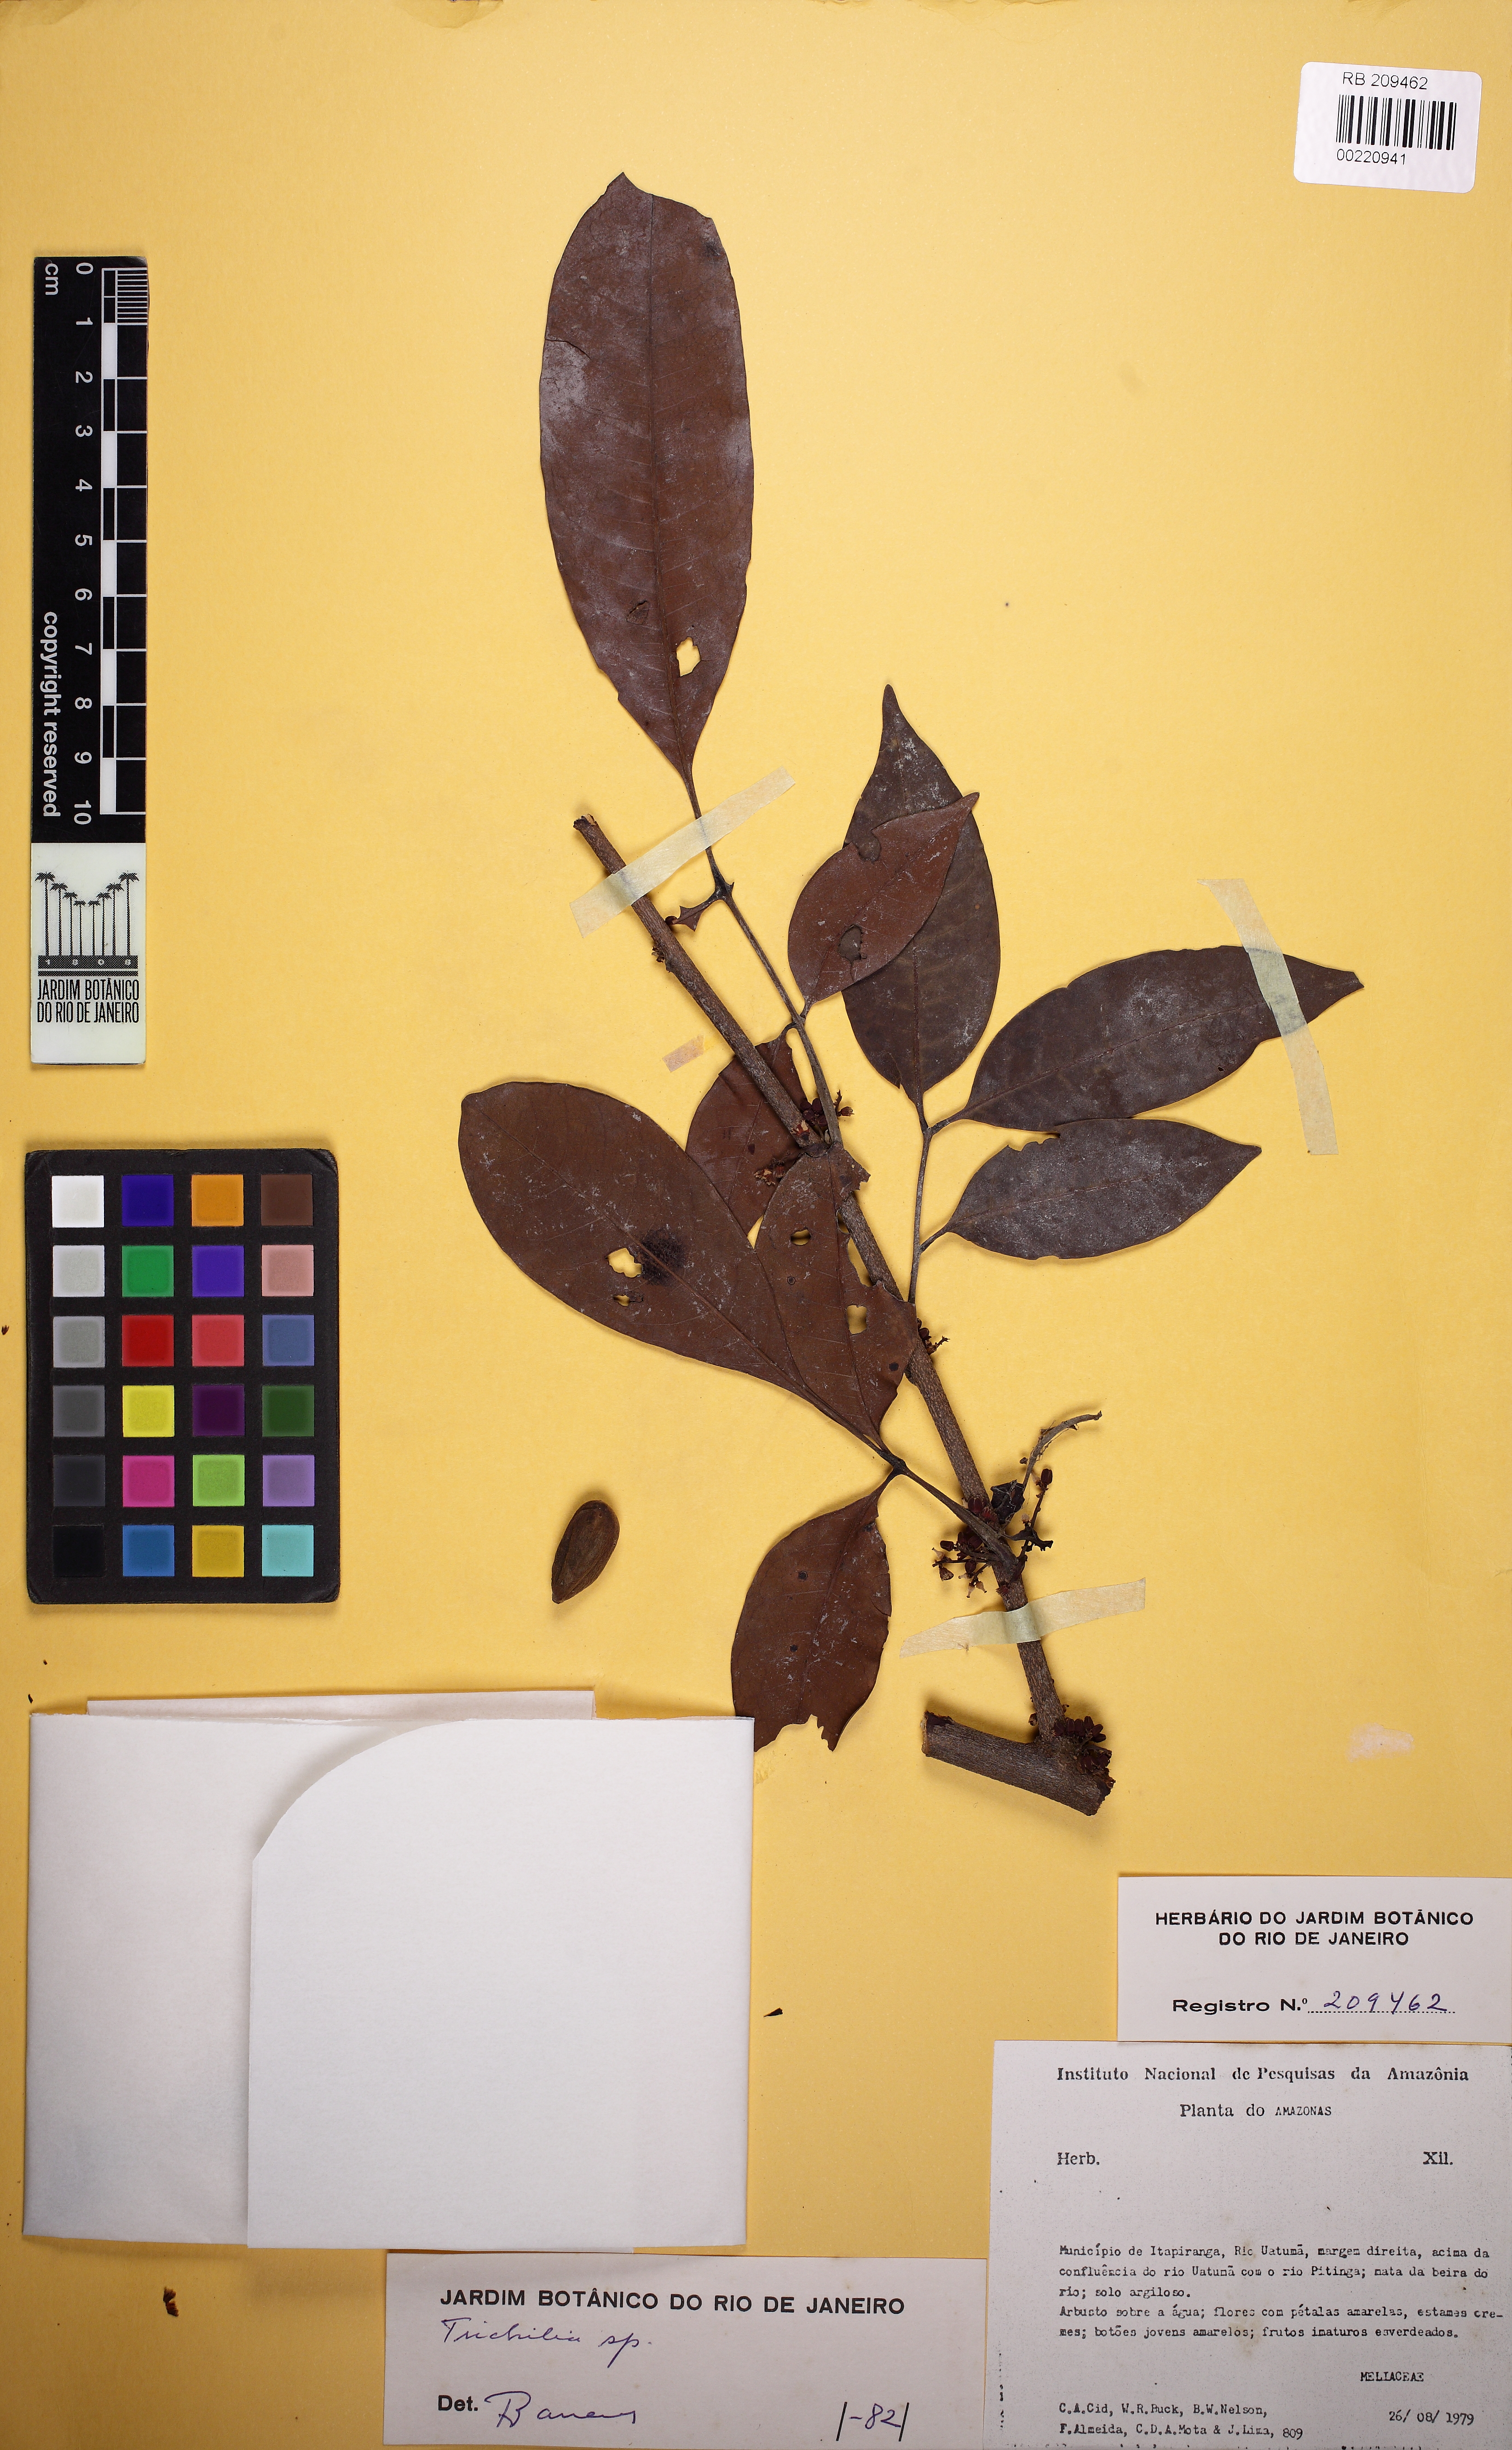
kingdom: Plantae
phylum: Tracheophyta
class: Magnoliopsida
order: Sapindales
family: Meliaceae
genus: Trichilia
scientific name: Trichilia rubra
